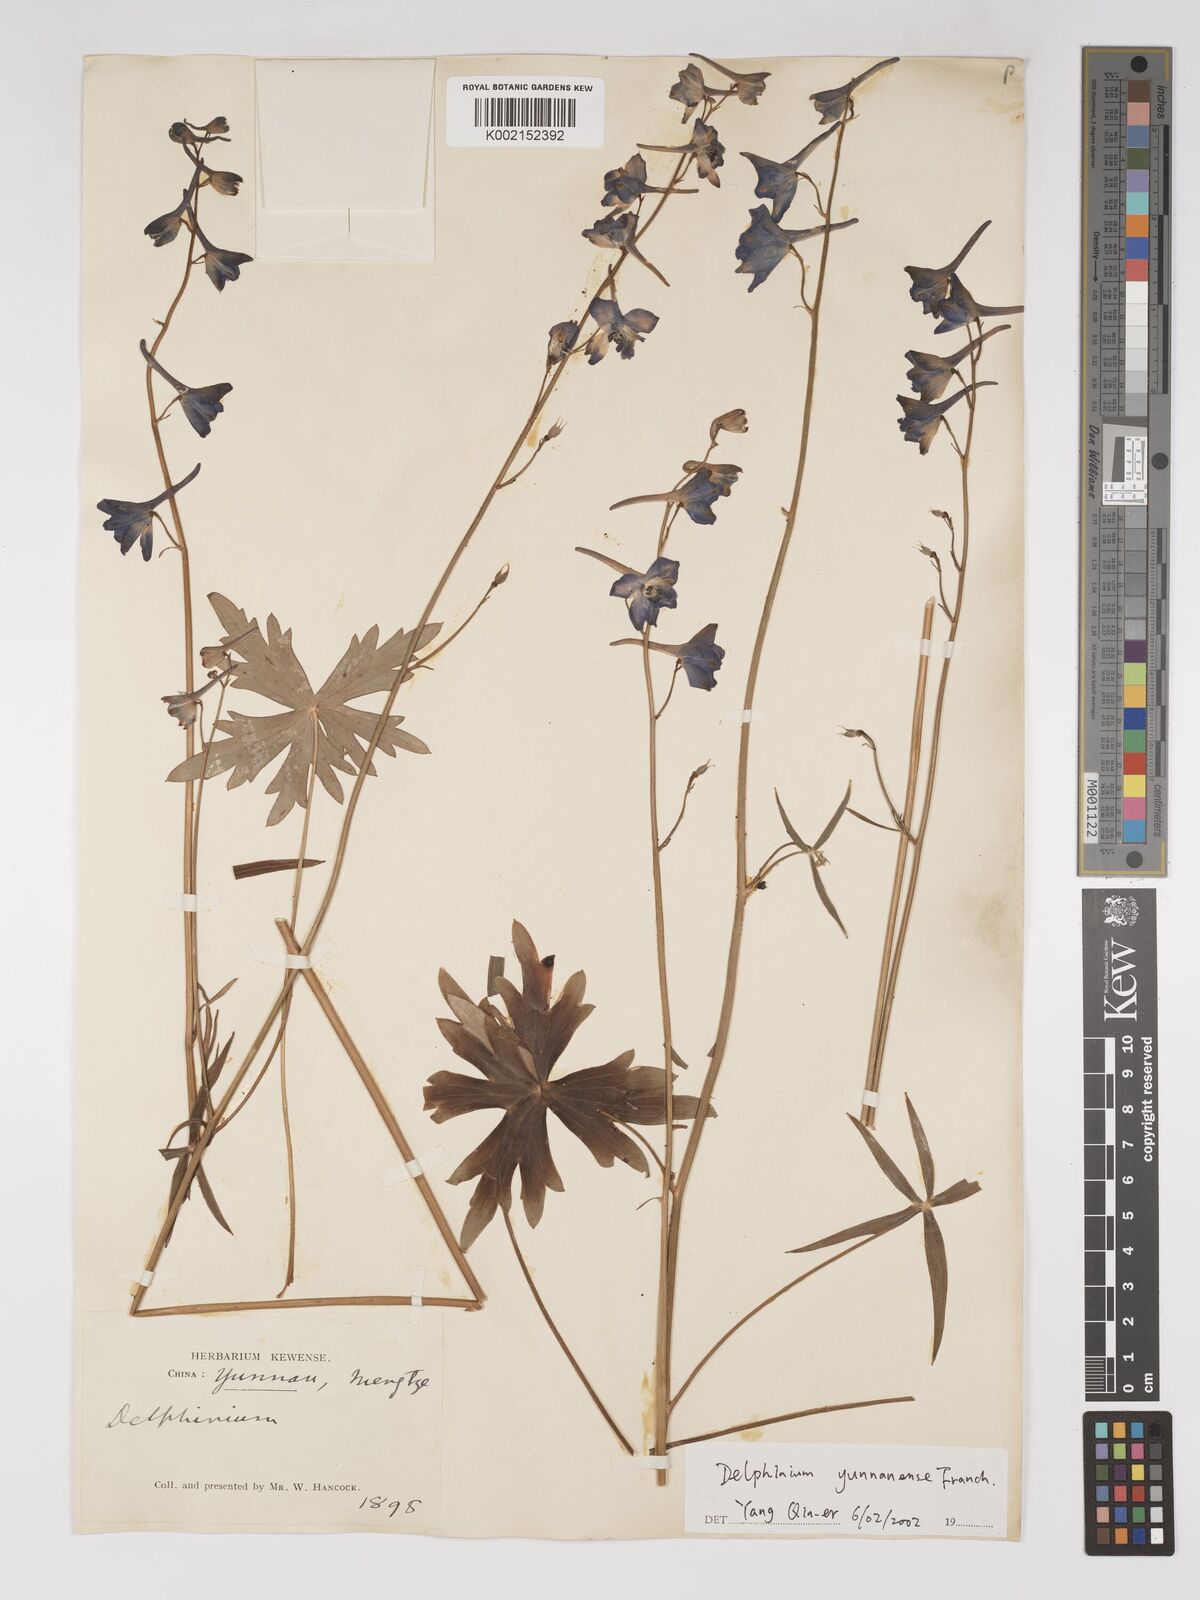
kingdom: Plantae
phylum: Tracheophyta
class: Magnoliopsida
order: Ranunculales
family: Ranunculaceae
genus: Delphinium
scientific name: Delphinium yunnanense
